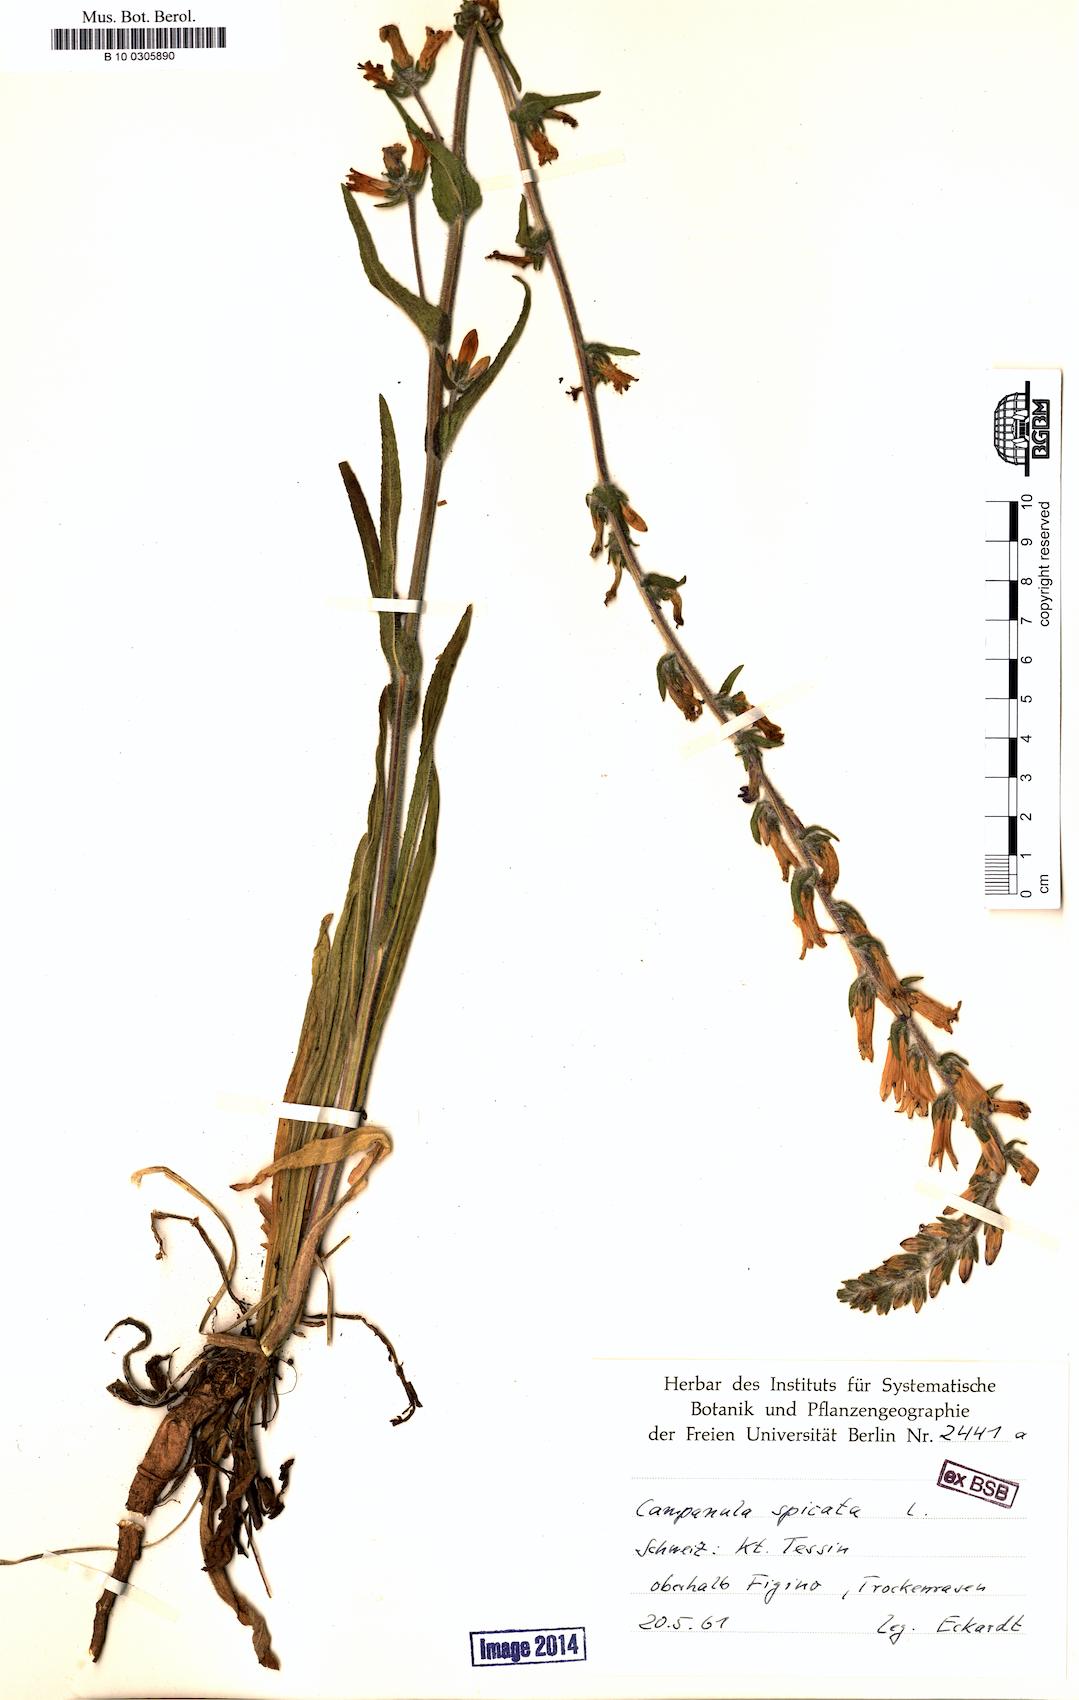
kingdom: Plantae
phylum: Tracheophyta
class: Magnoliopsida
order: Asterales
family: Campanulaceae
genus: Campanula
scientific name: Campanula spicata
